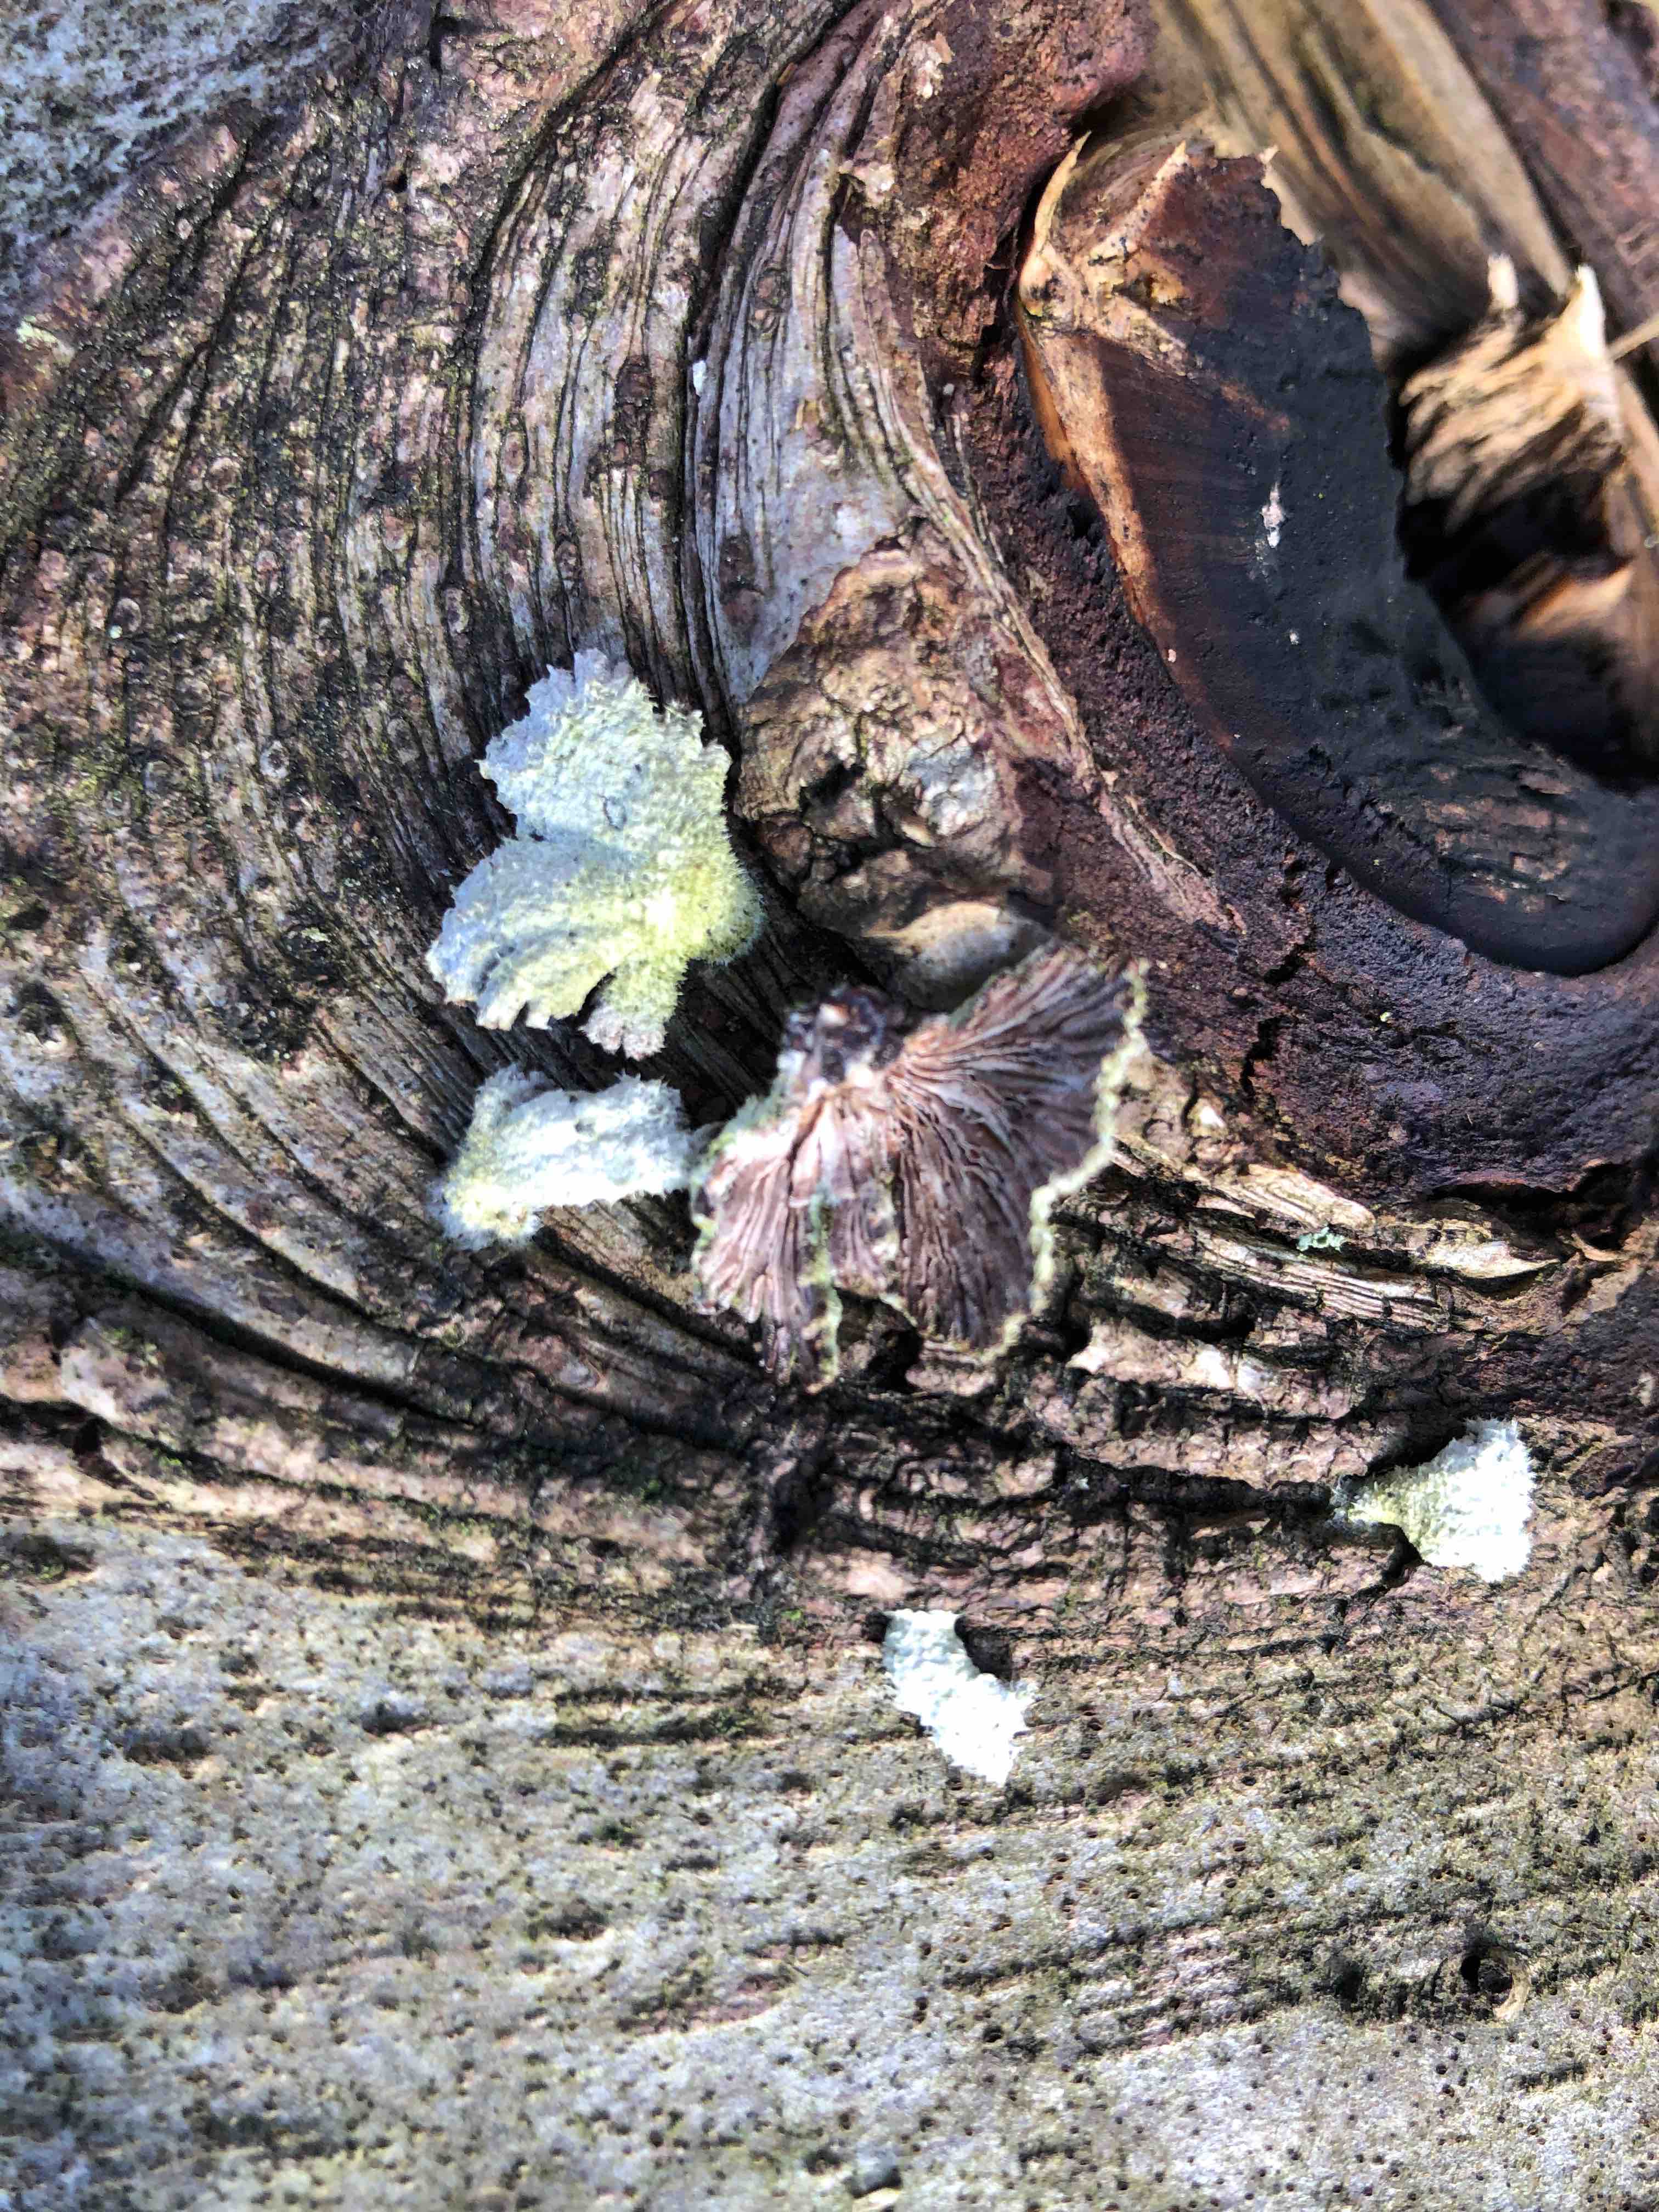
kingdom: Fungi
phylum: Basidiomycota
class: Agaricomycetes
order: Agaricales
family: Schizophyllaceae
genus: Schizophyllum
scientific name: Schizophyllum commune
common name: kløvblad
